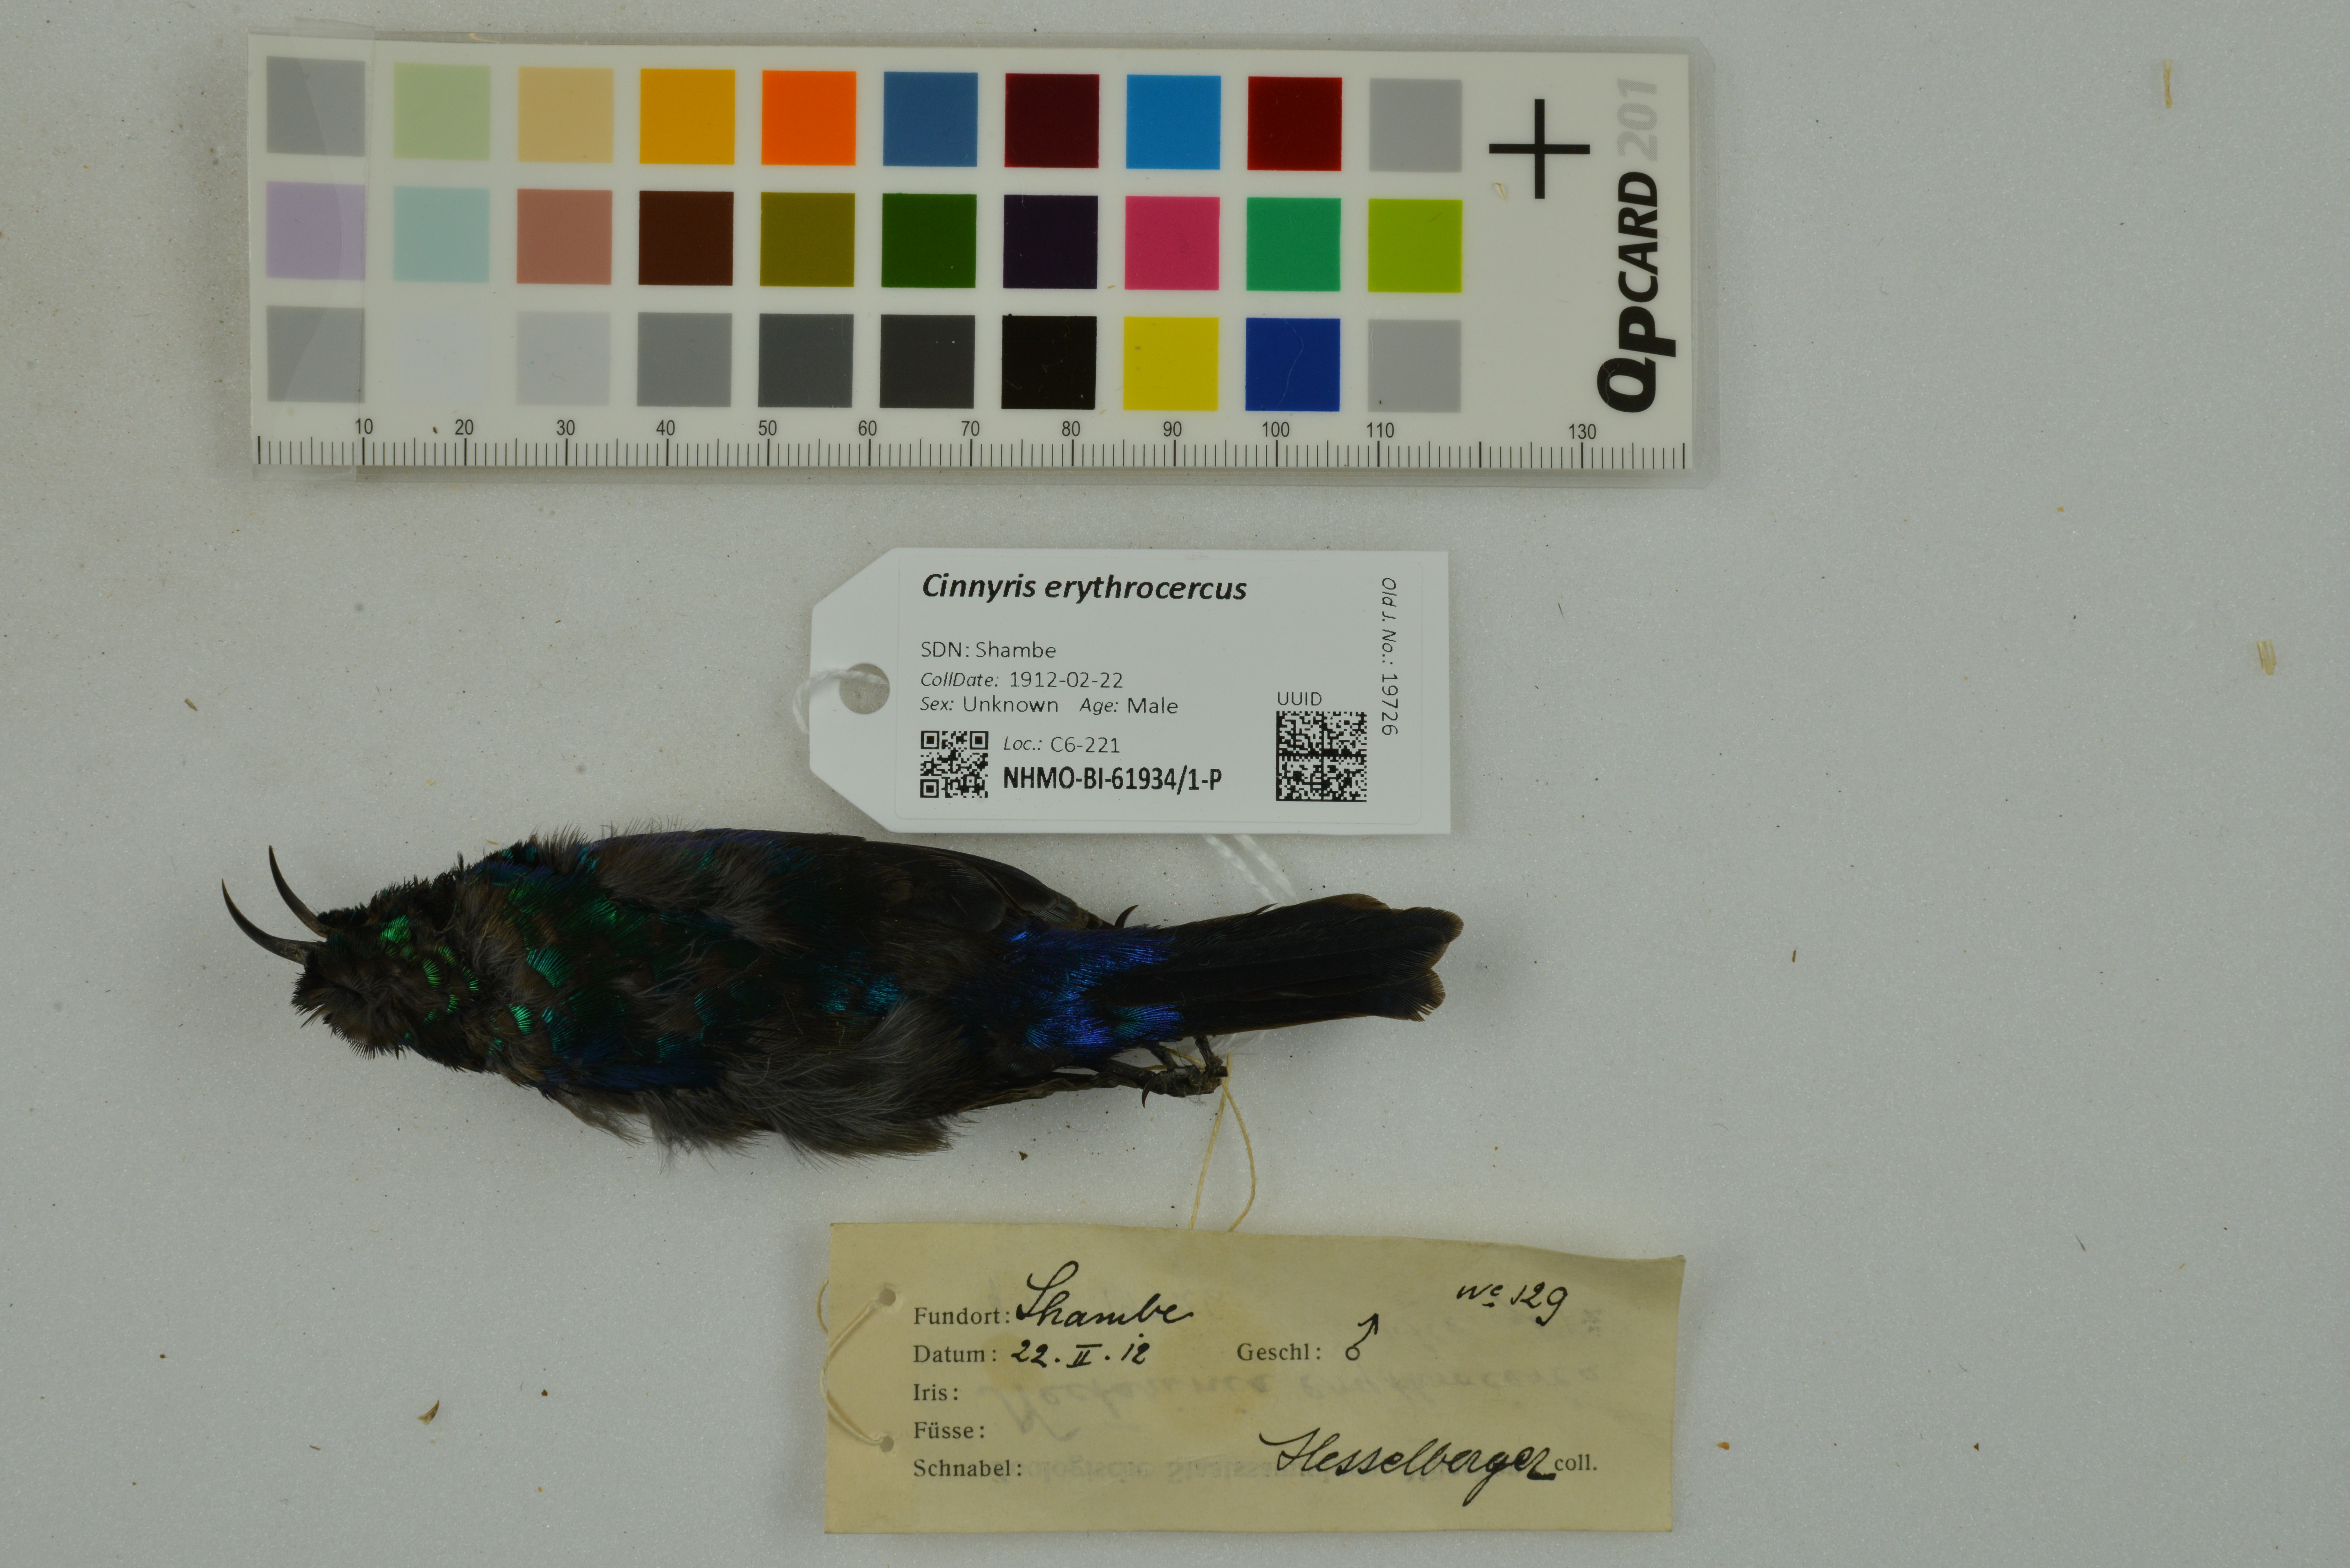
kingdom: Animalia
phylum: Chordata
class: Aves
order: Passeriformes
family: Nectariniidae
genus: Cinnyris
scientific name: Cinnyris erythrocercus
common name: Red-chested sunbird
